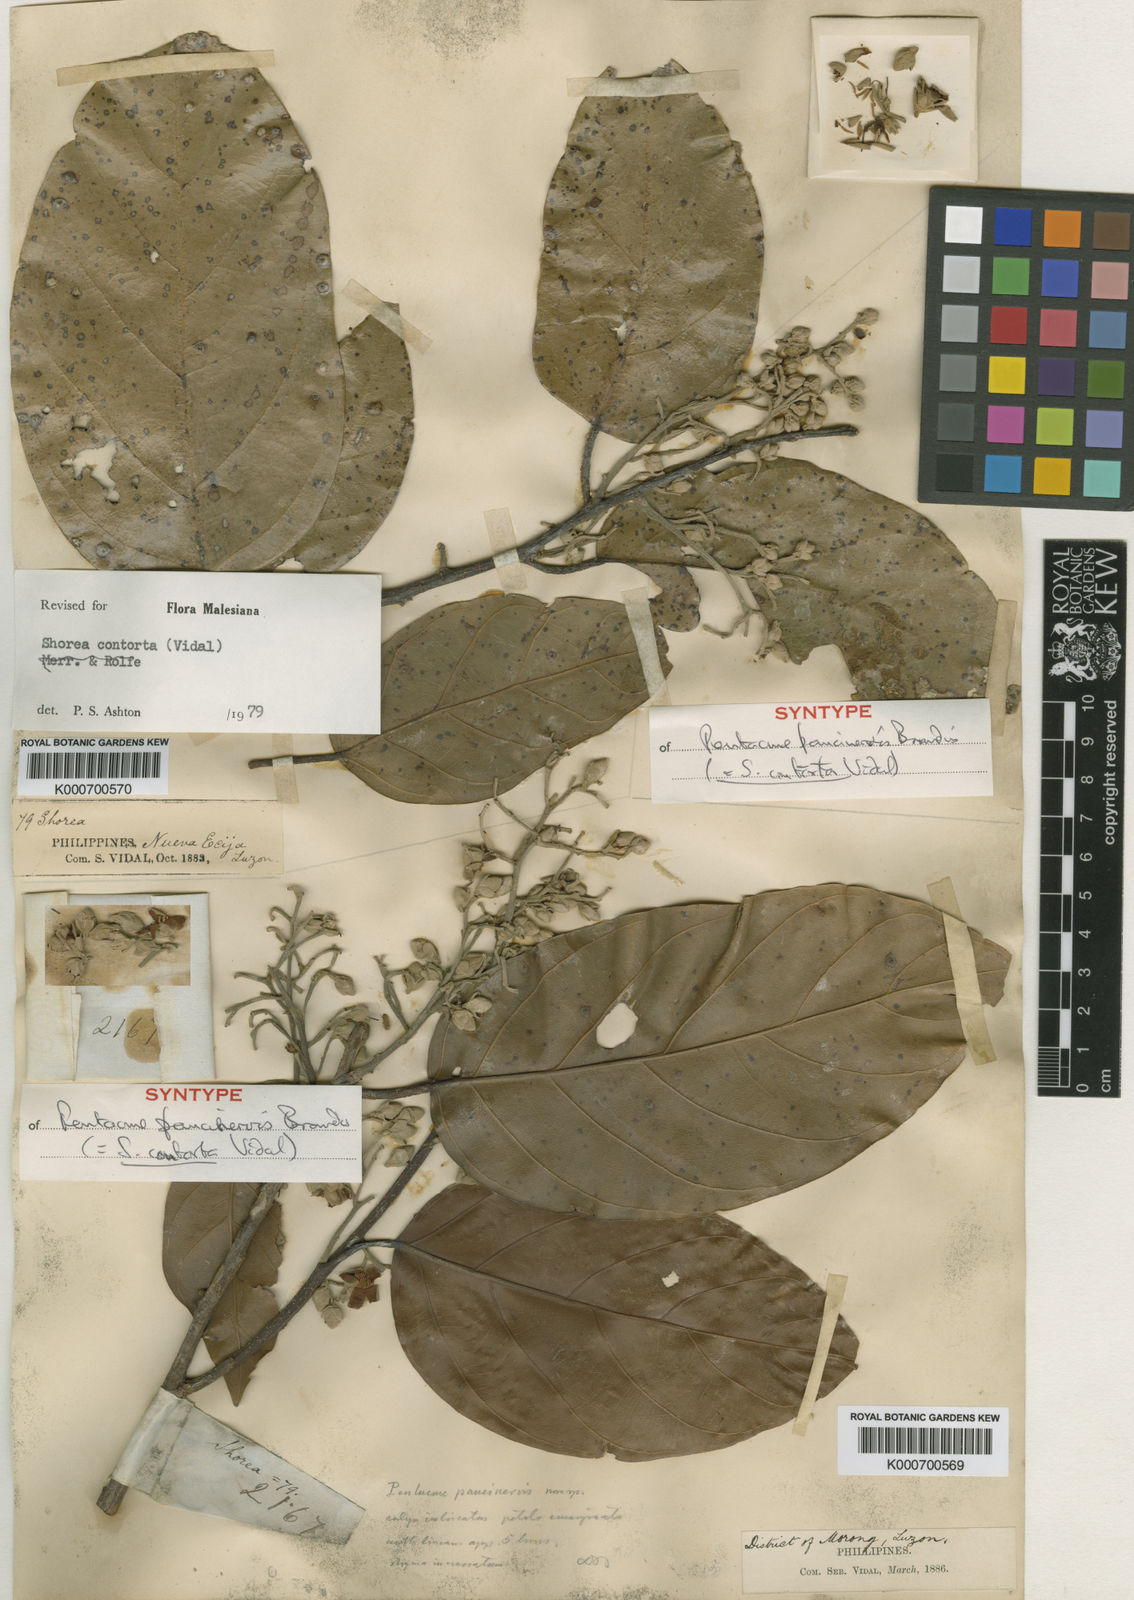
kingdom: Plantae
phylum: Tracheophyta
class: Magnoliopsida
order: Malvales
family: Dipterocarpaceae
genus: Pentacme
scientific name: Pentacme contorta
